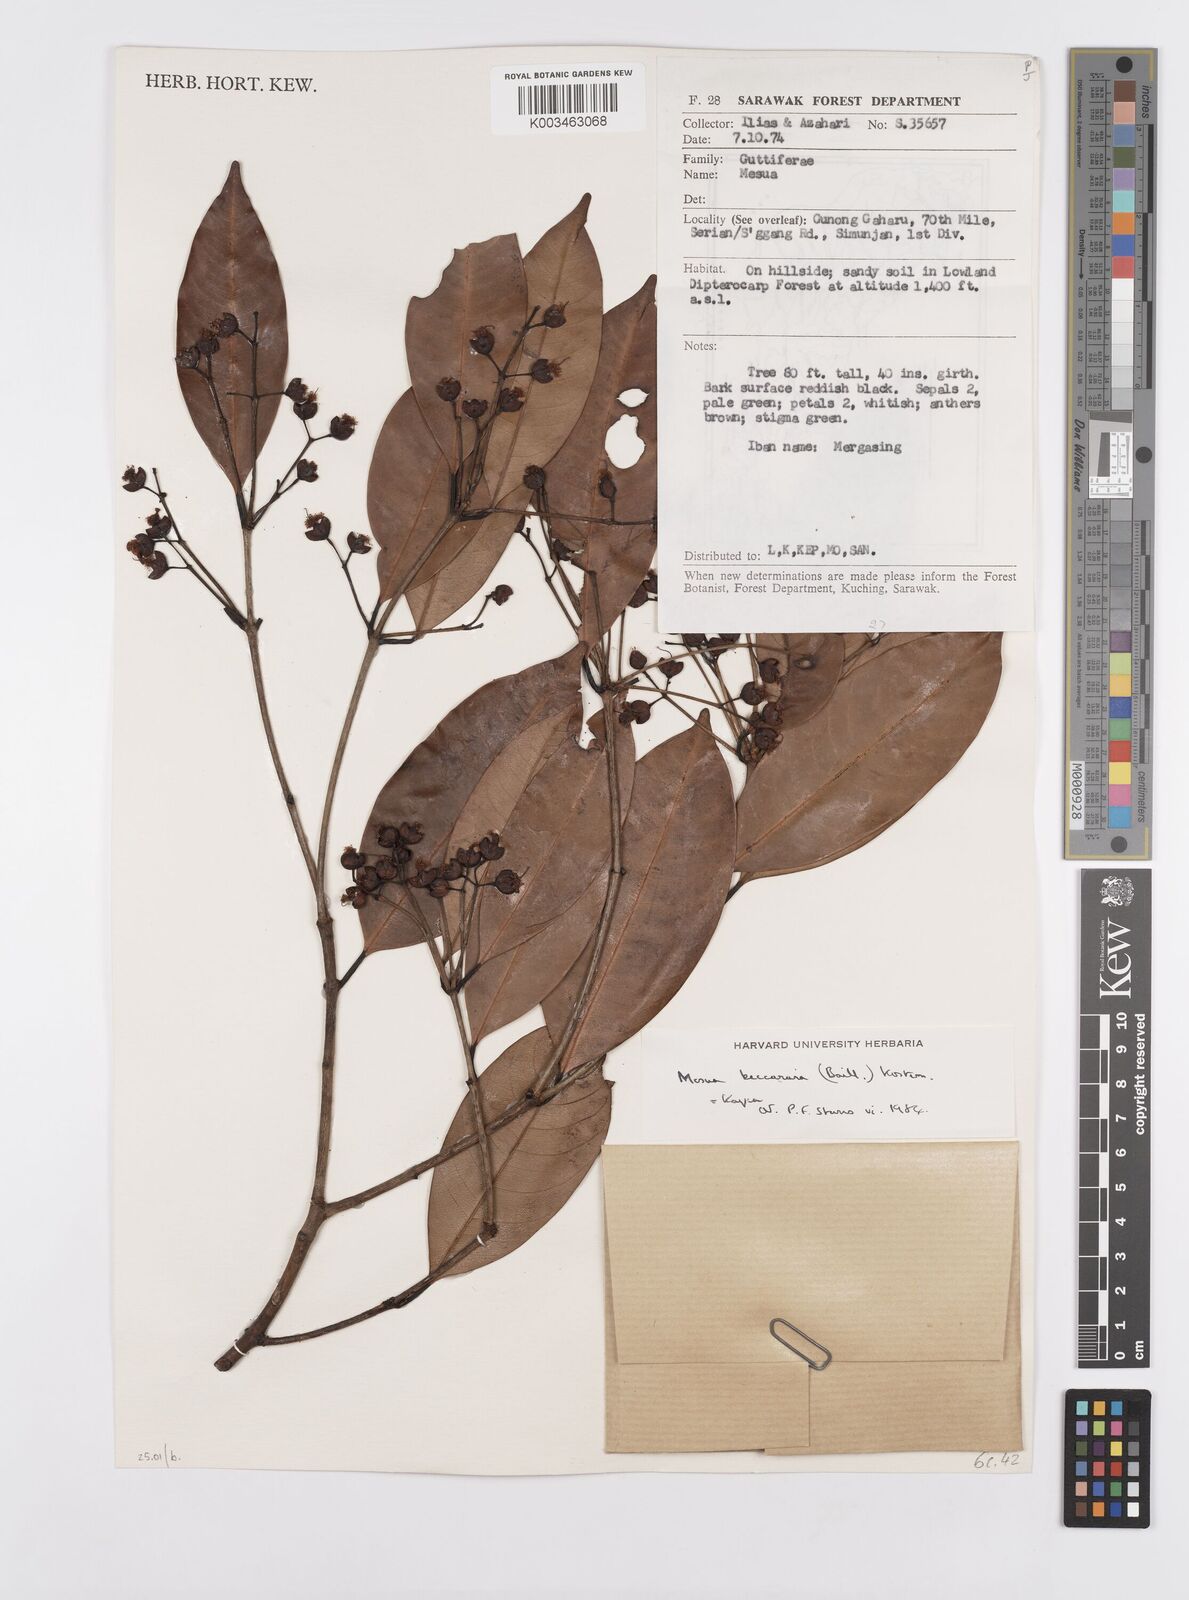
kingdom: Plantae
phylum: Tracheophyta
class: Magnoliopsida
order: Malpighiales
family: Calophyllaceae
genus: Kayea
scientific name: Kayea beccariana
